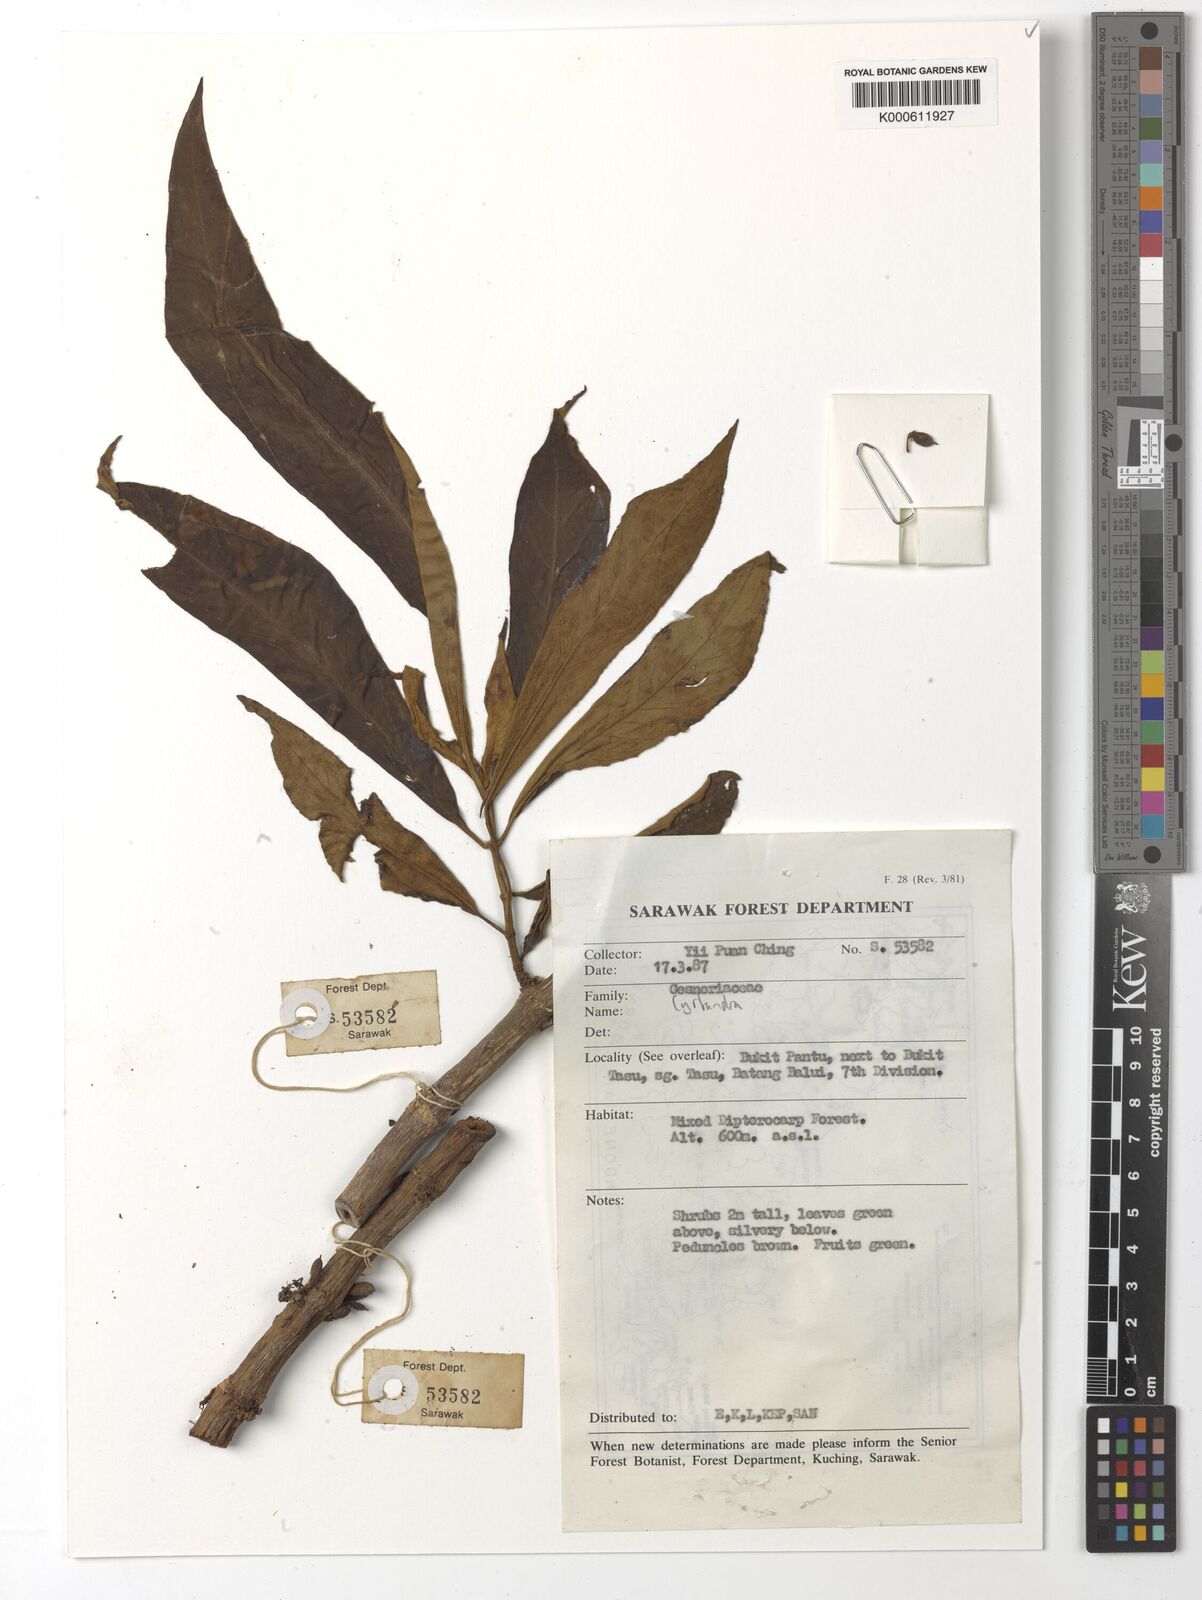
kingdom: Plantae
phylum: Tracheophyta
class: Magnoliopsida
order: Lamiales
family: Gesneriaceae
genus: Cyrtandra
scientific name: Cyrtandra
